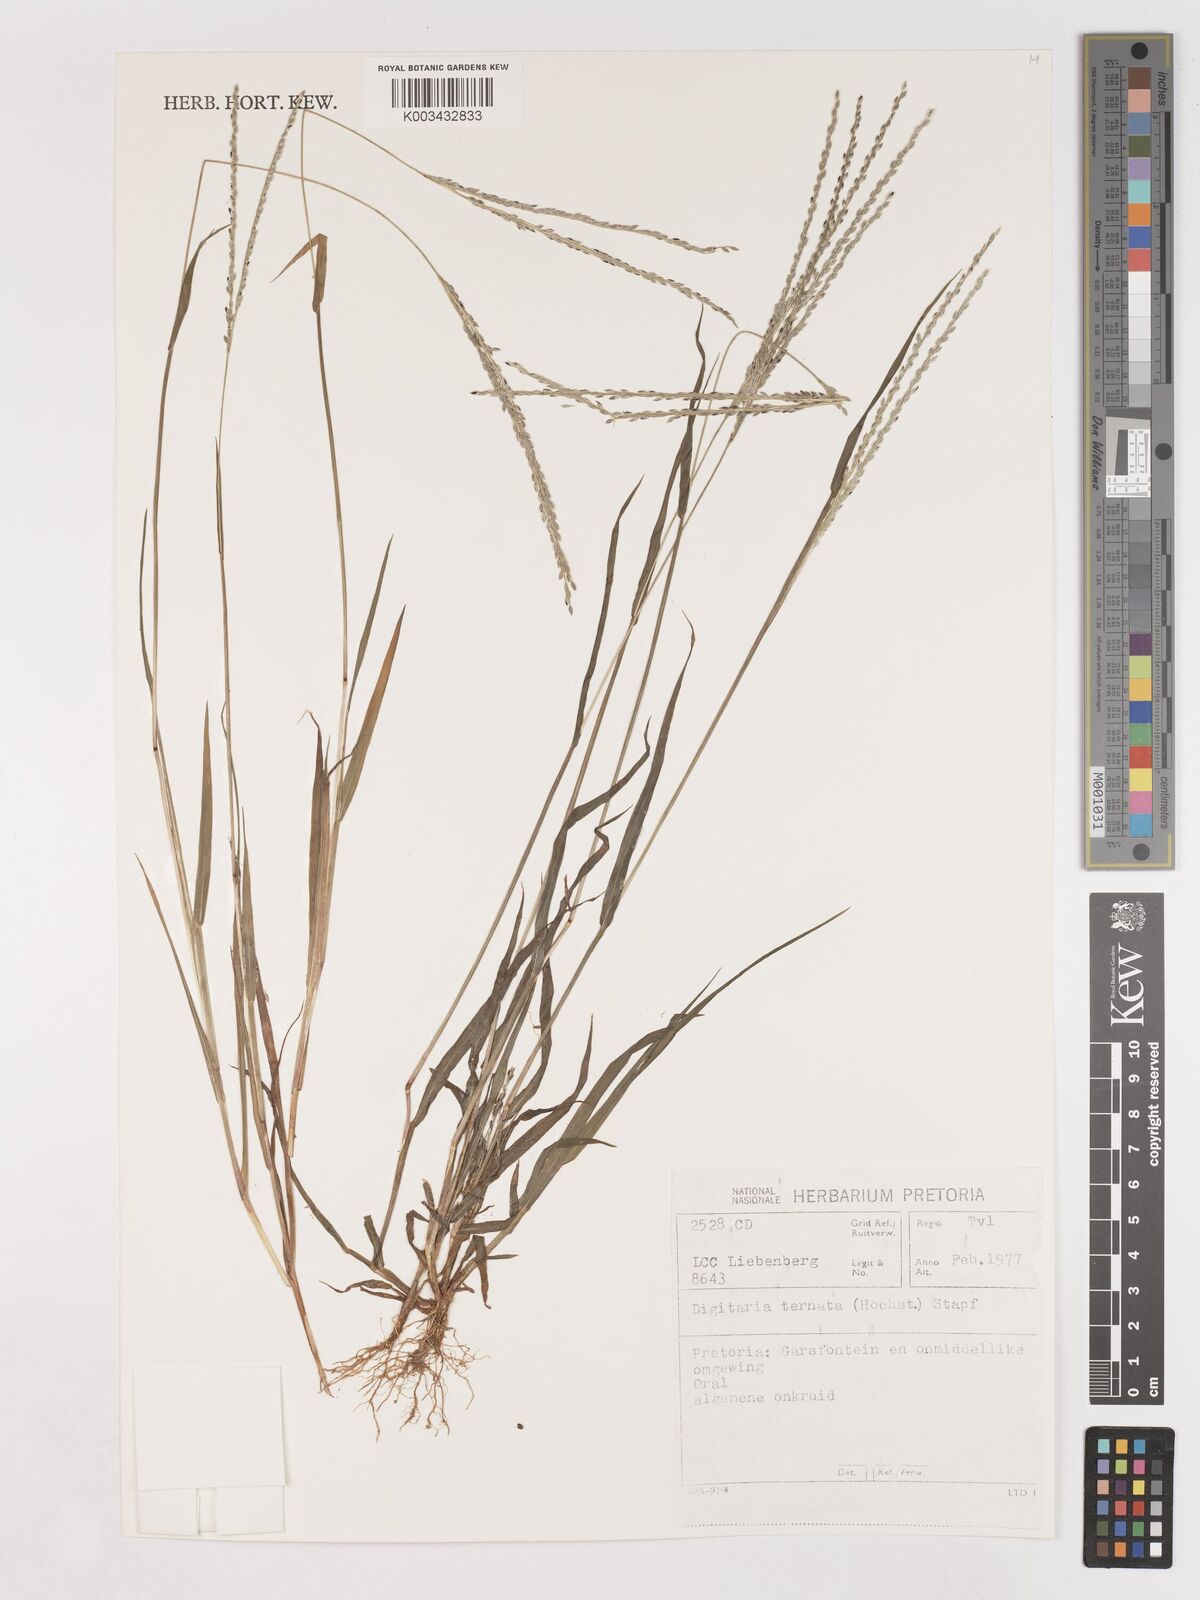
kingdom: Plantae
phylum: Tracheophyta
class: Liliopsida
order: Poales
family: Poaceae
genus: Digitaria
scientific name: Digitaria ternata
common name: Blackseed crabgrass
